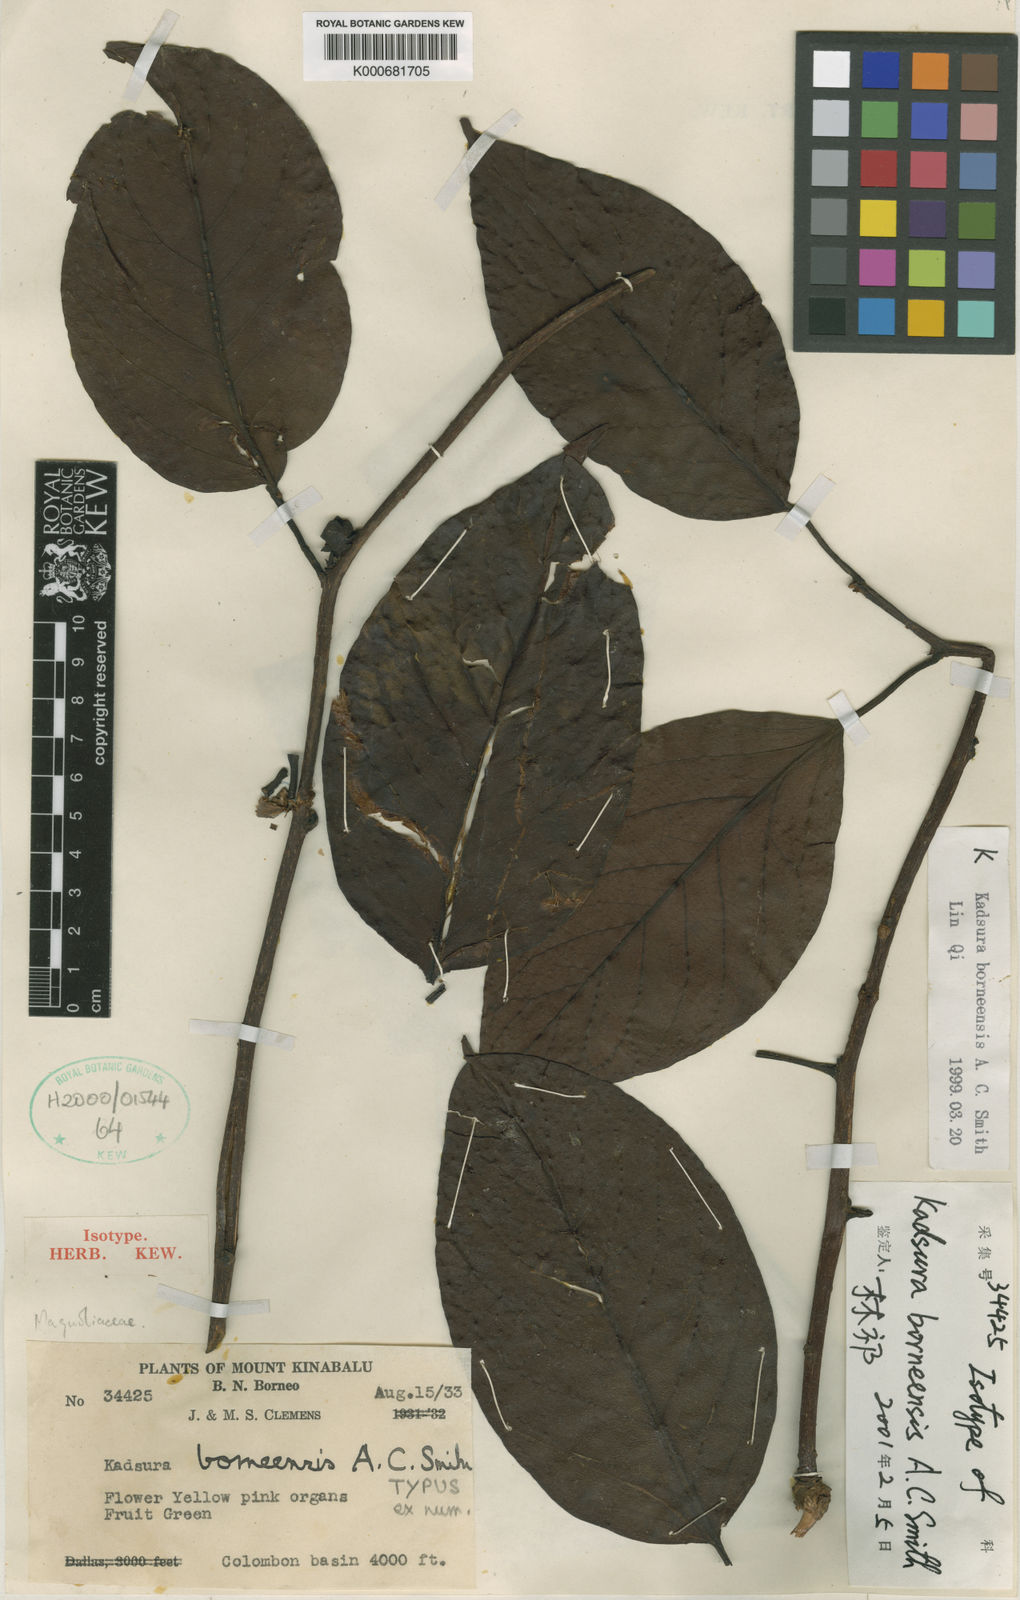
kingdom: Plantae
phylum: Tracheophyta
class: Magnoliopsida
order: Austrobaileyales
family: Schisandraceae
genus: Kadsura
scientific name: Kadsura borneensis
